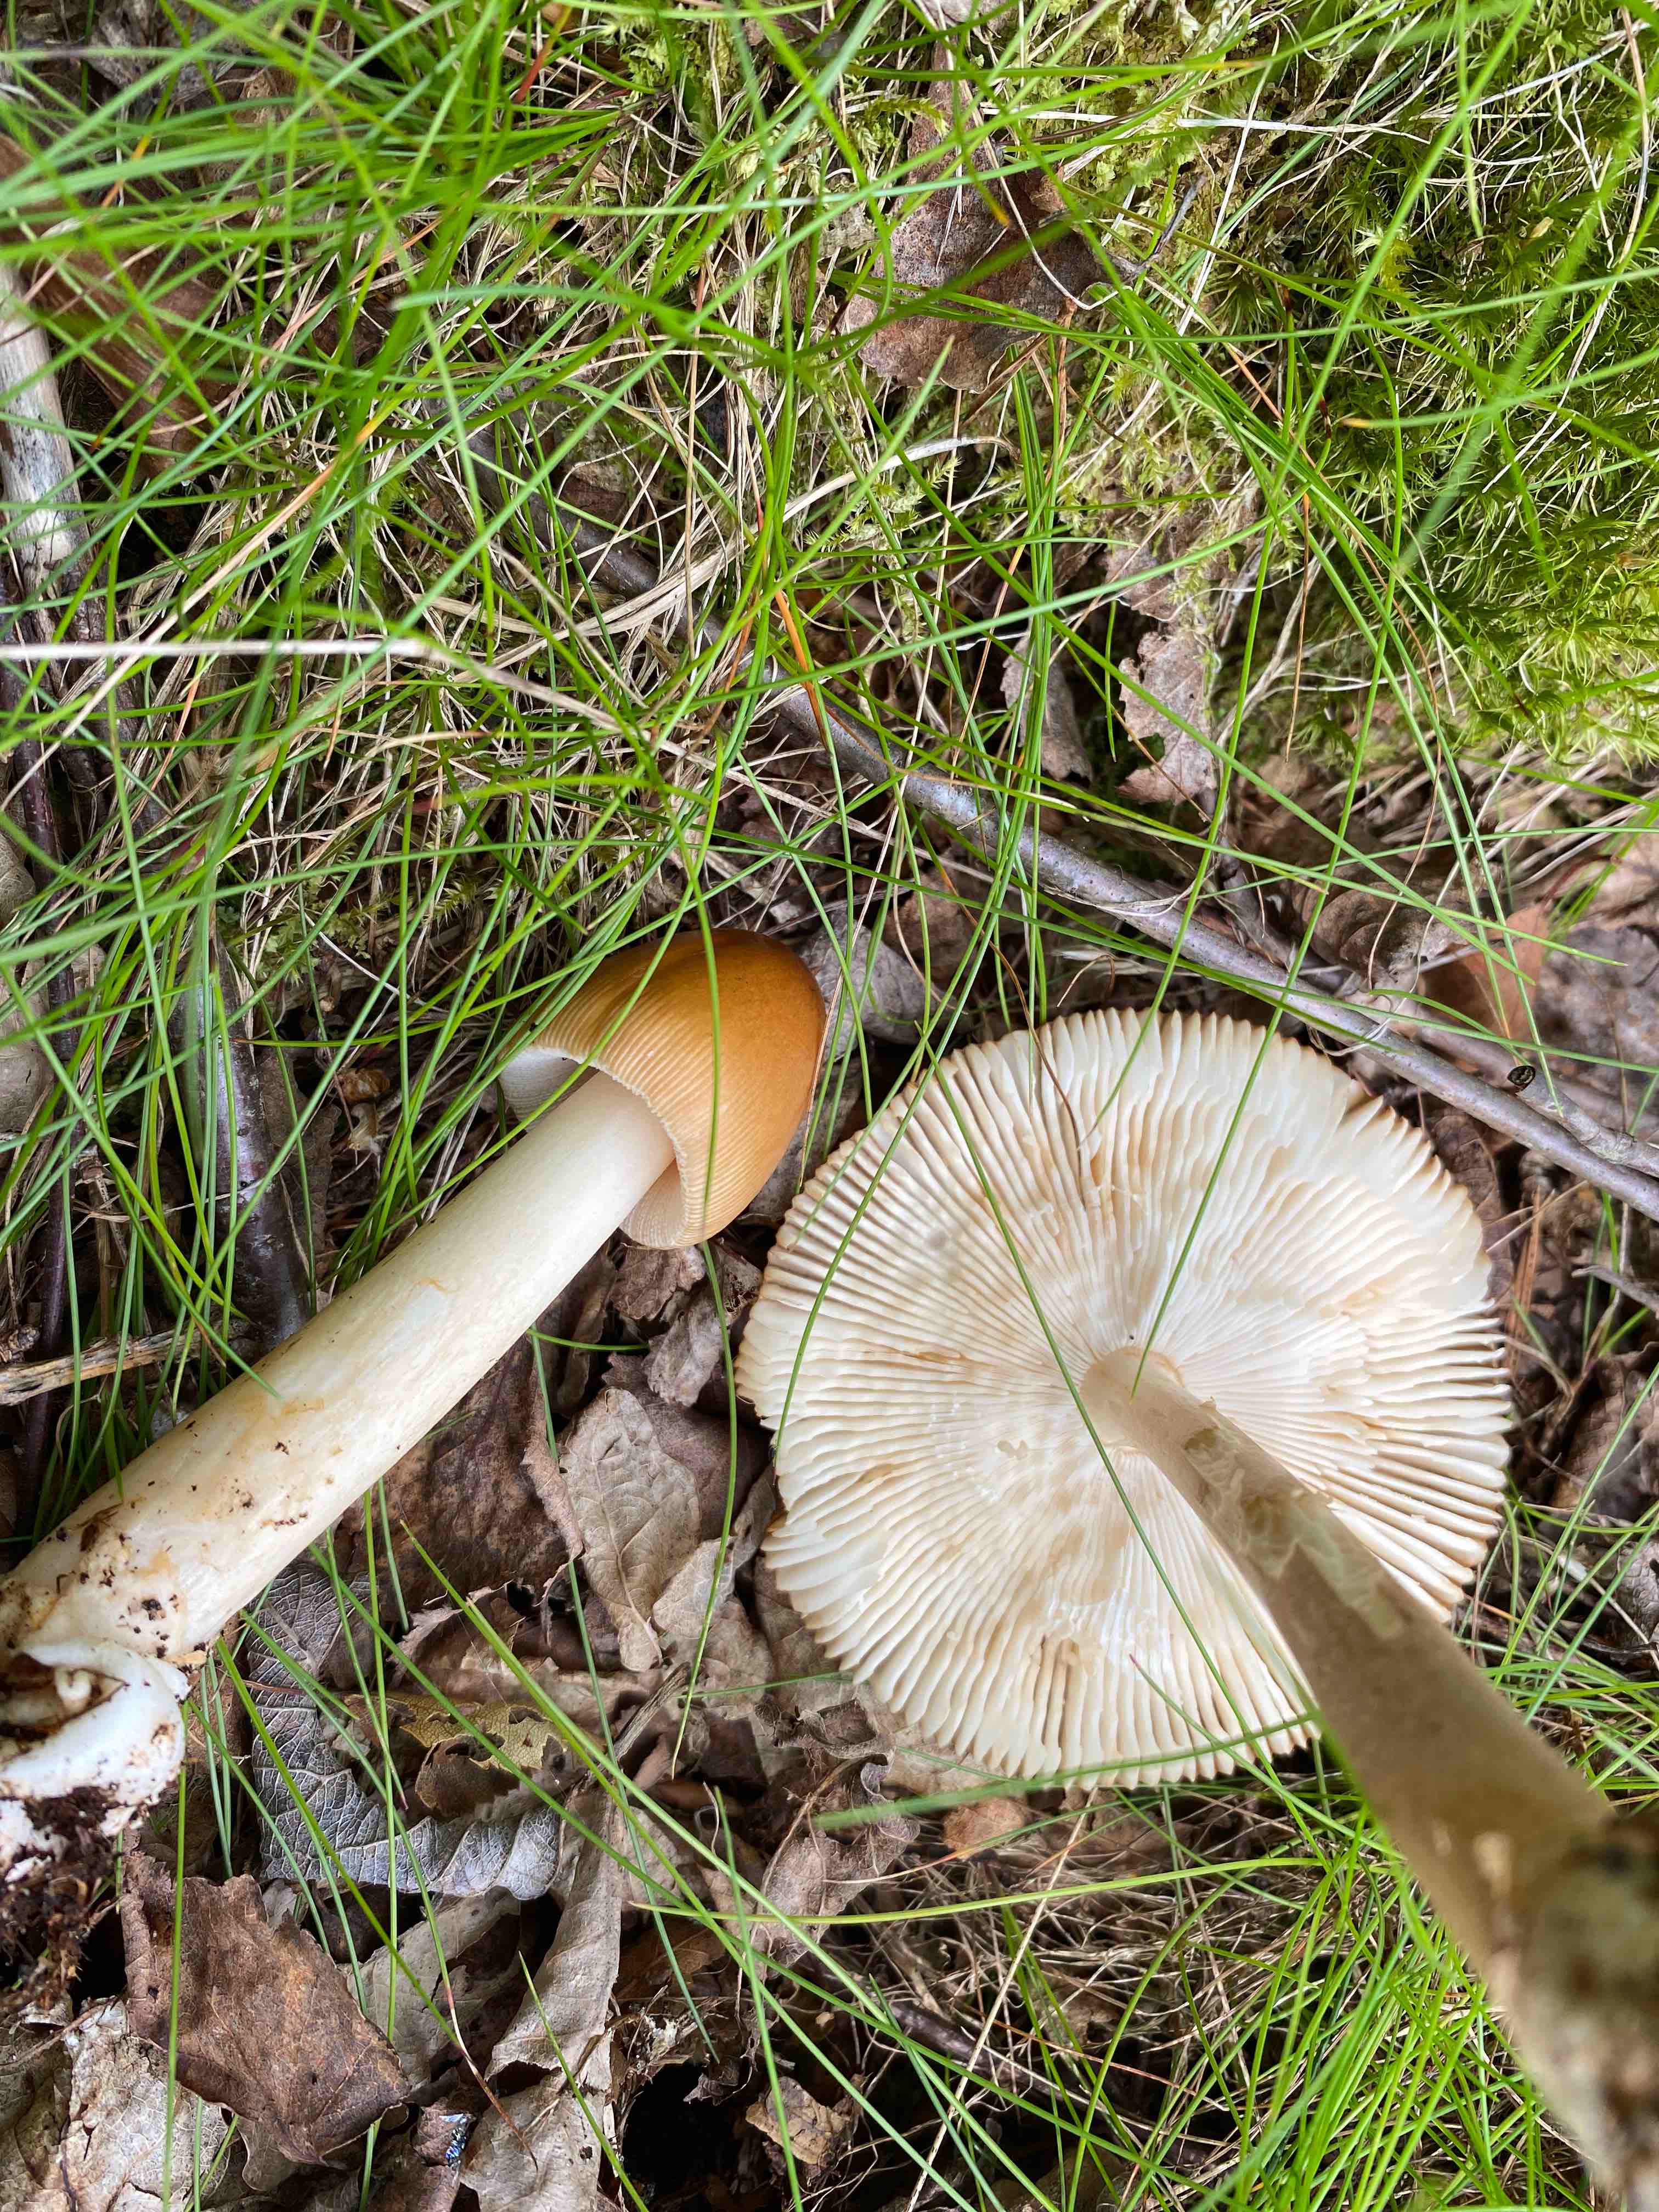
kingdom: Fungi
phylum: Basidiomycota
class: Agaricomycetes
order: Agaricales
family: Amanitaceae
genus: Amanita
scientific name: Amanita fulva
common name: brun kam-fluesvamp
